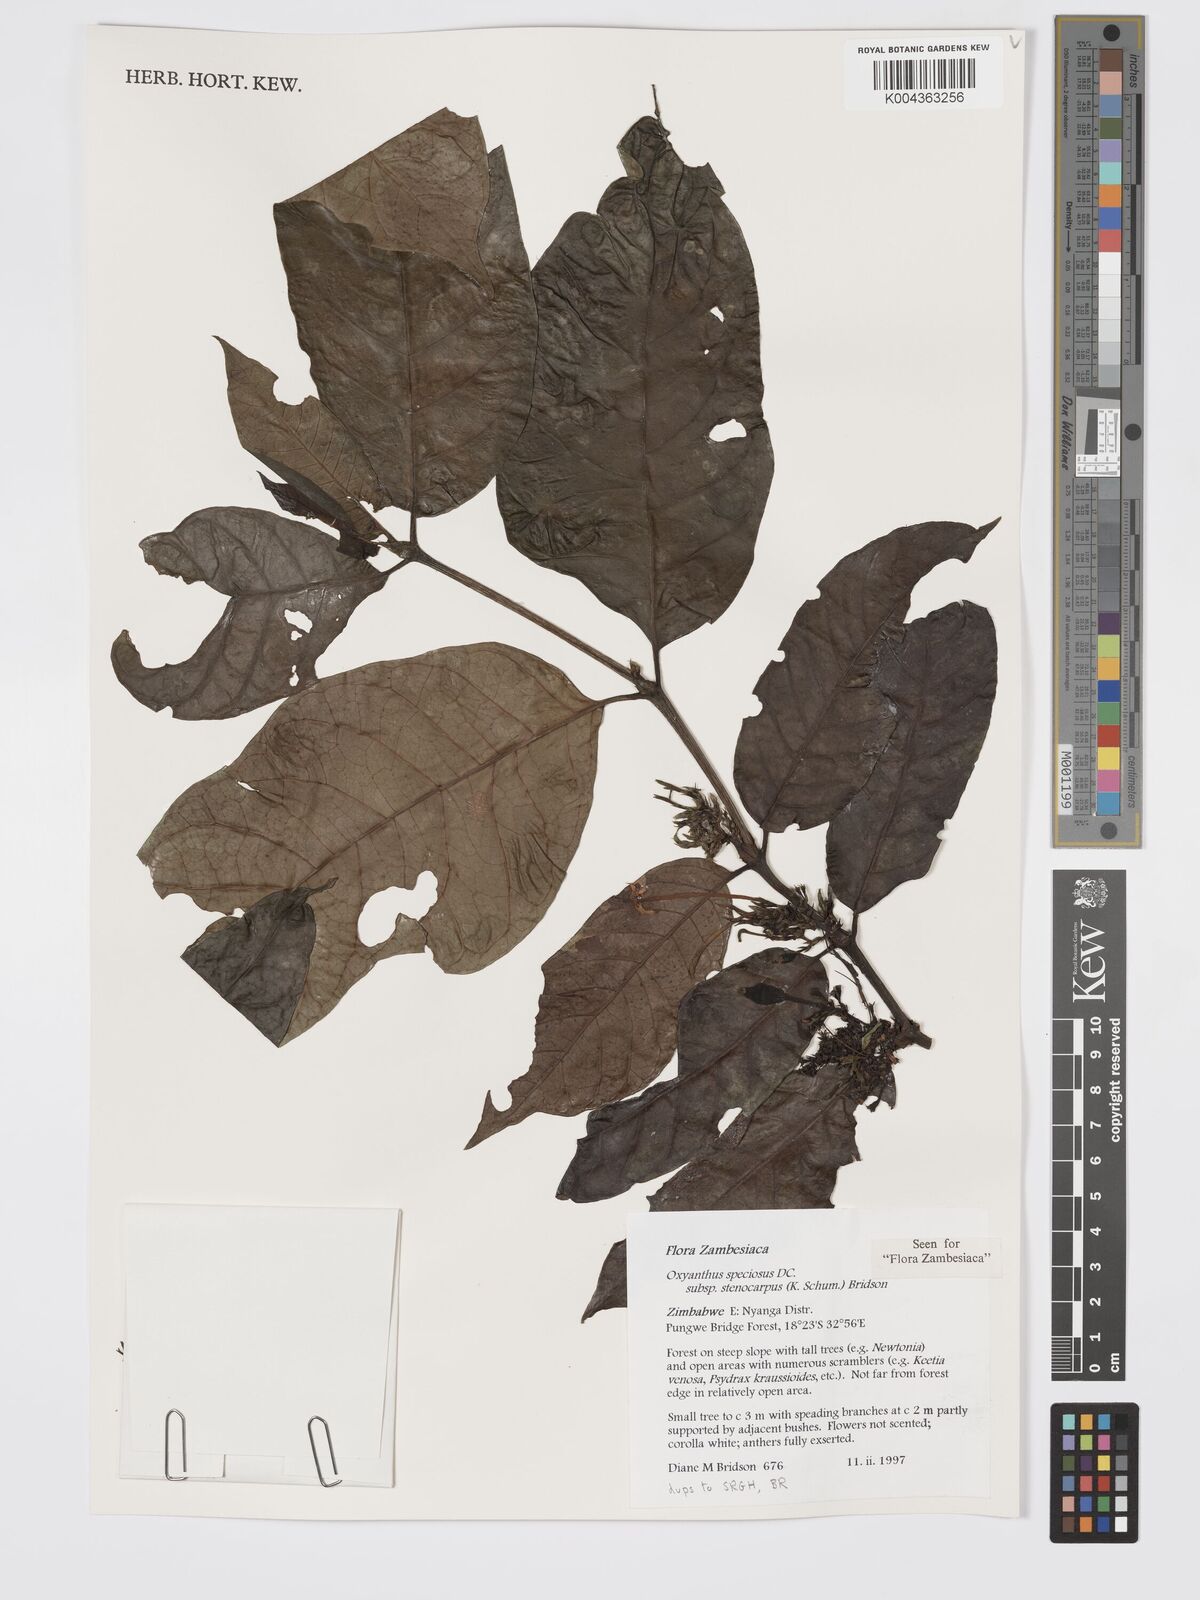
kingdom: Plantae
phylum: Tracheophyta
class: Magnoliopsida
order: Gentianales
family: Rubiaceae
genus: Oxyanthus
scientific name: Oxyanthus speciosus
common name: Whipstick loquat
